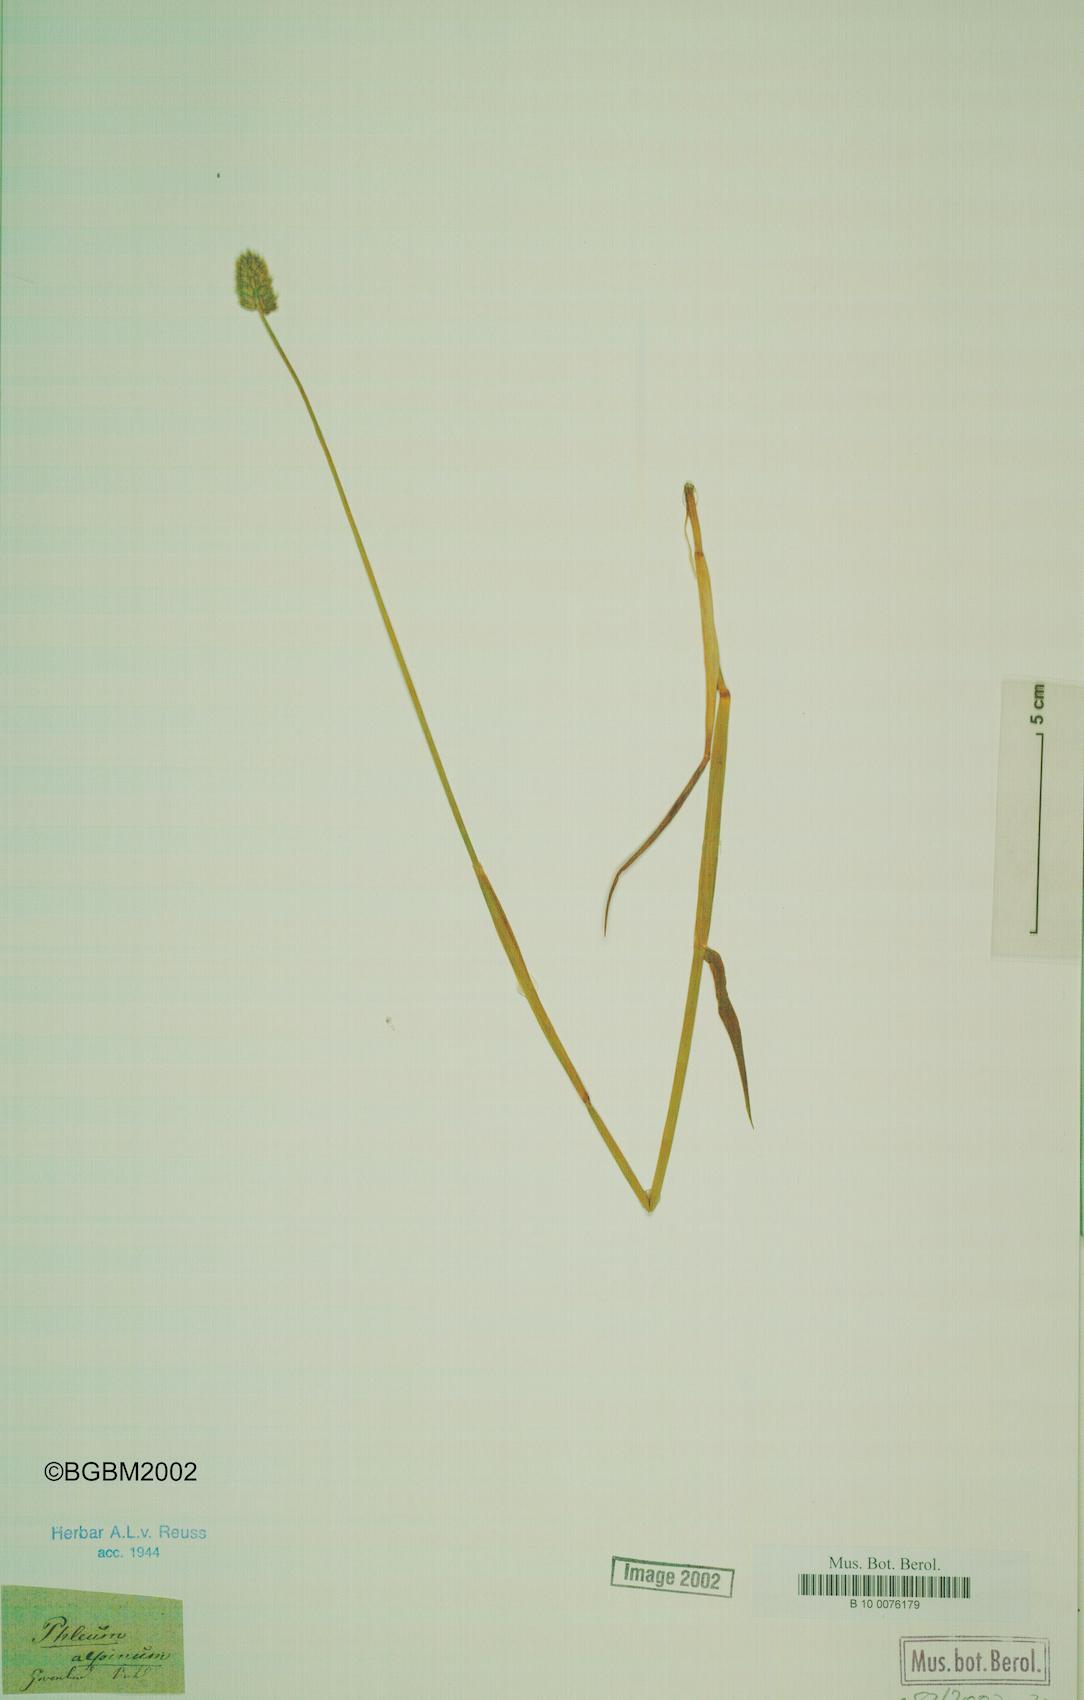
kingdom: Plantae
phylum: Tracheophyta
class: Liliopsida
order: Poales
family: Poaceae
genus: Phleum
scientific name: Phleum alpinum
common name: Alpine cat's-tail
